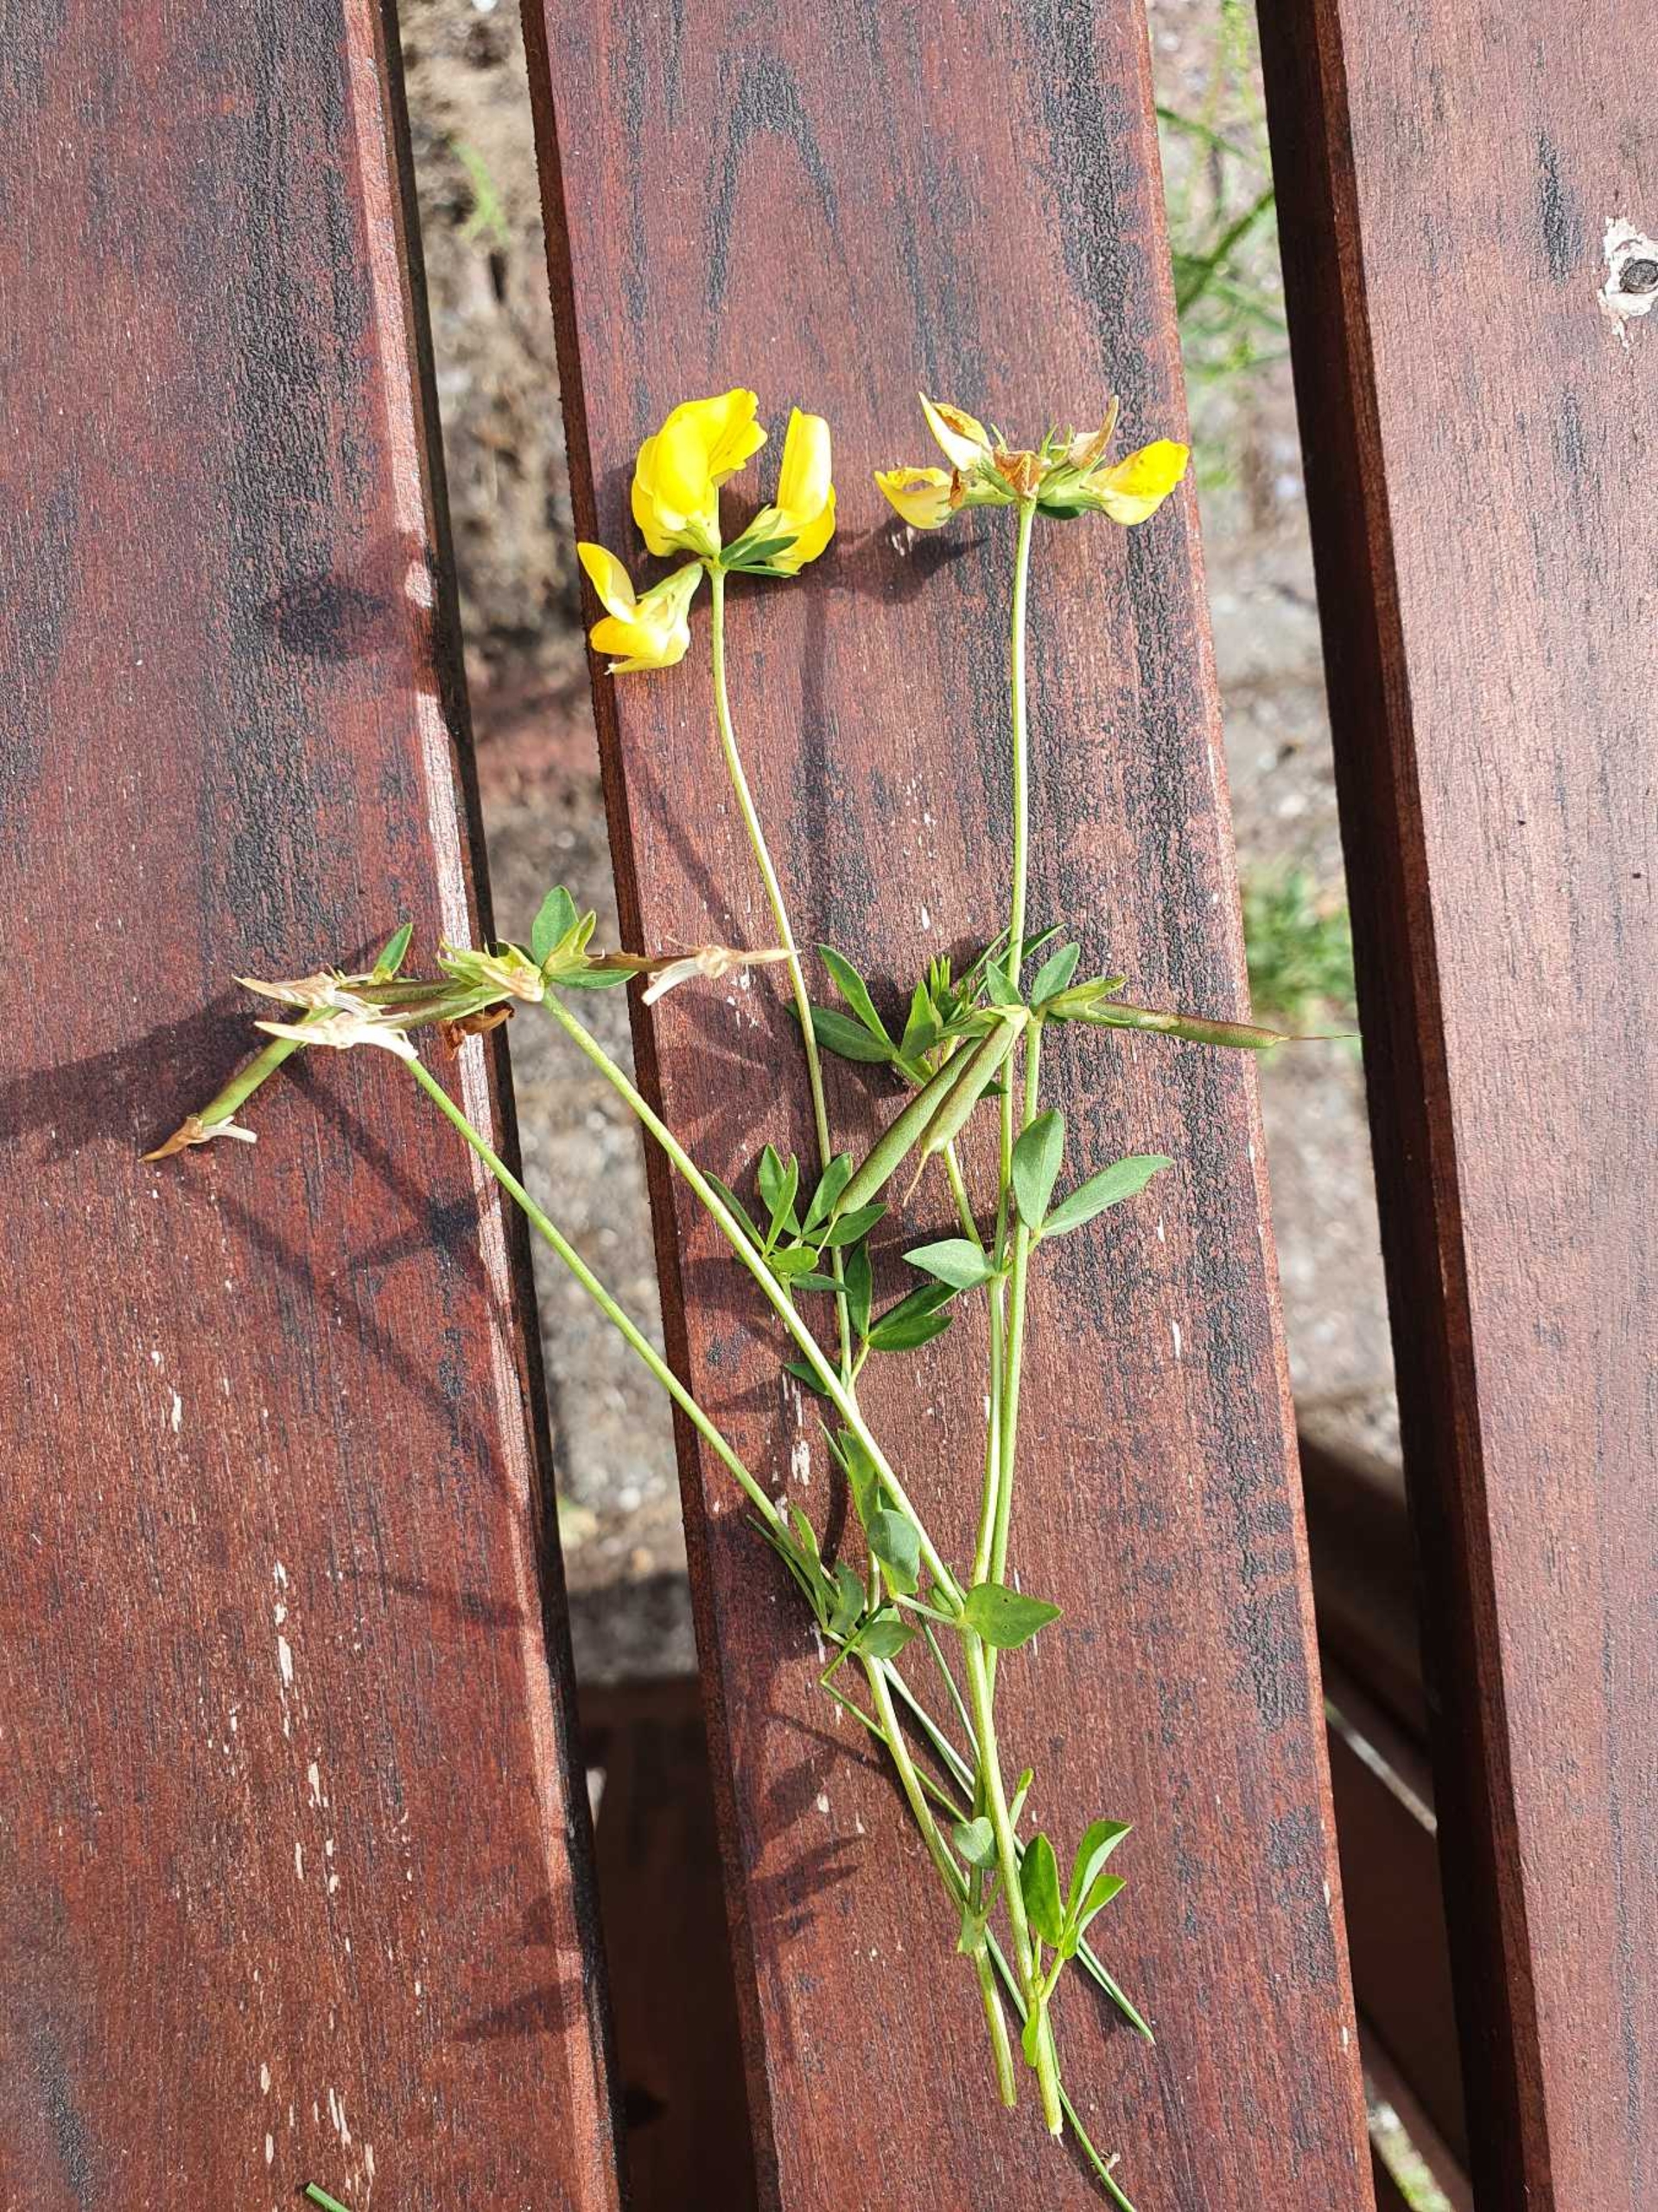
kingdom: Plantae
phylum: Tracheophyta
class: Magnoliopsida
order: Fabales
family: Fabaceae
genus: Lotus
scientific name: Lotus tenuis
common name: Smalbladet kællingetand
